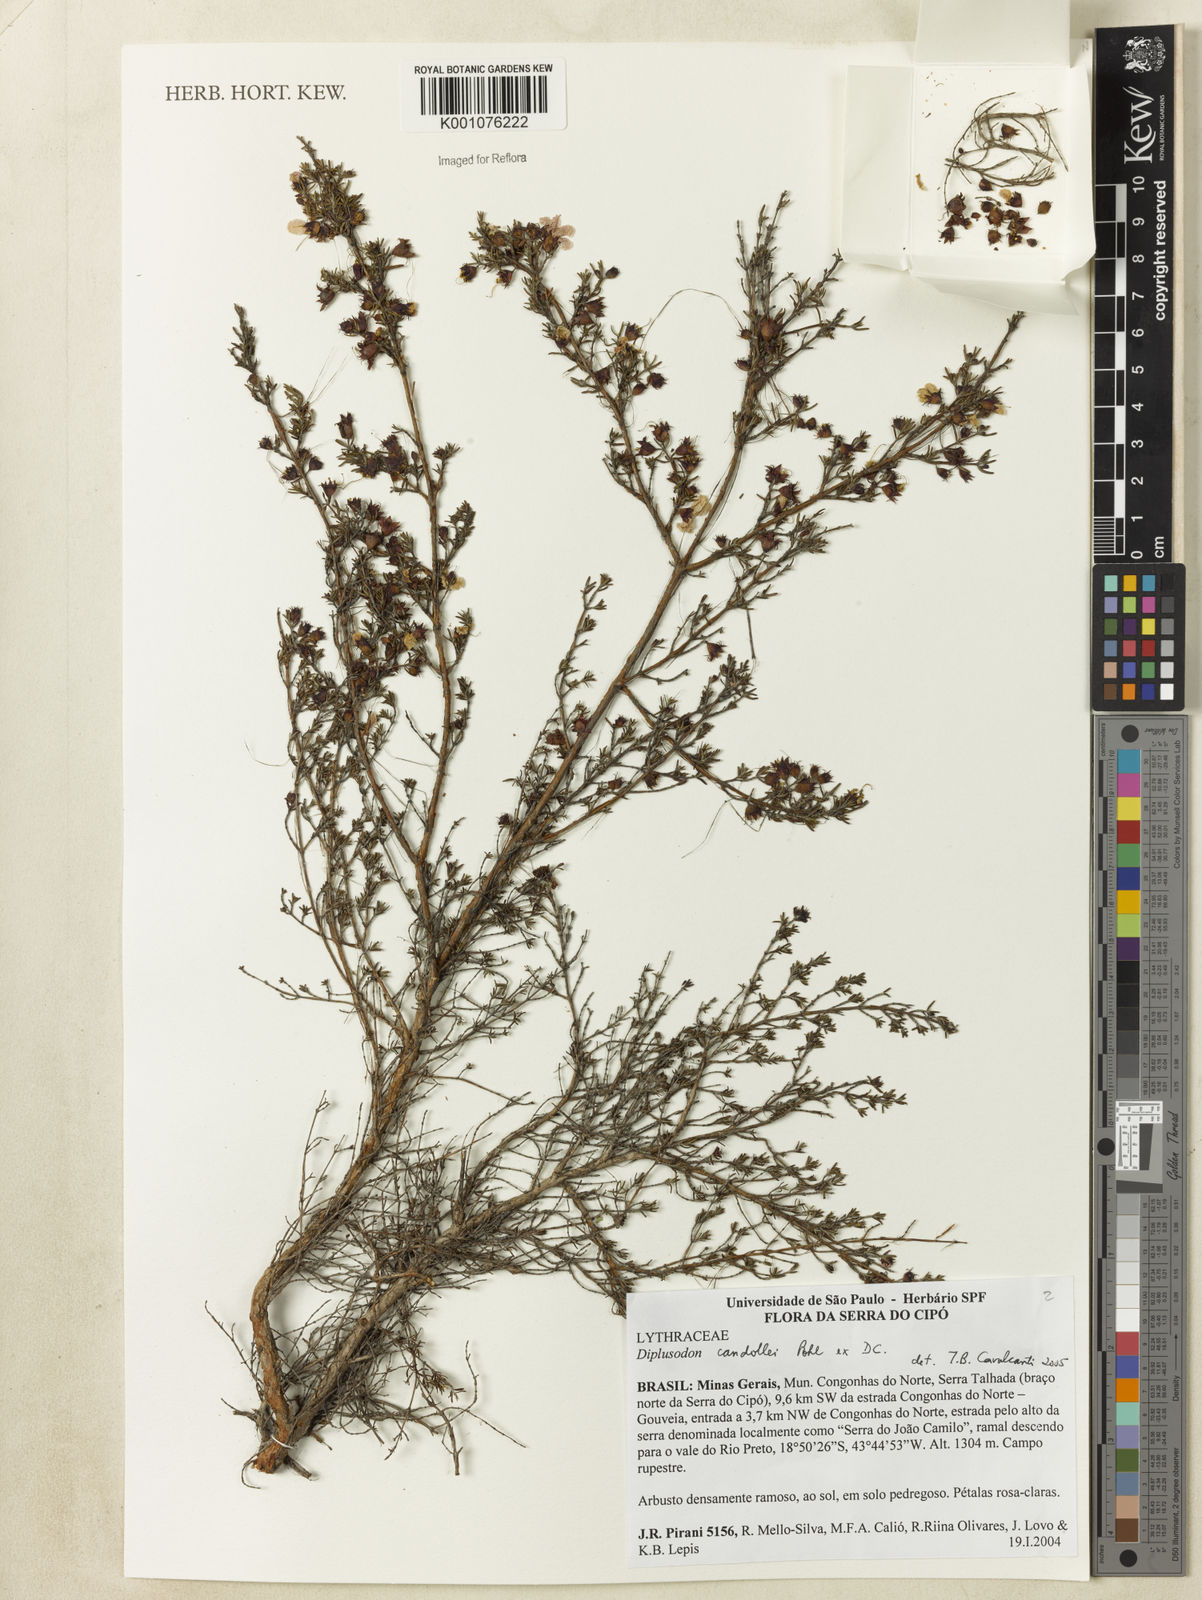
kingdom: Plantae
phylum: Tracheophyta
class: Magnoliopsida
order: Myrtales
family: Lythraceae
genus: Diplusodon
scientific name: Diplusodon candollei
